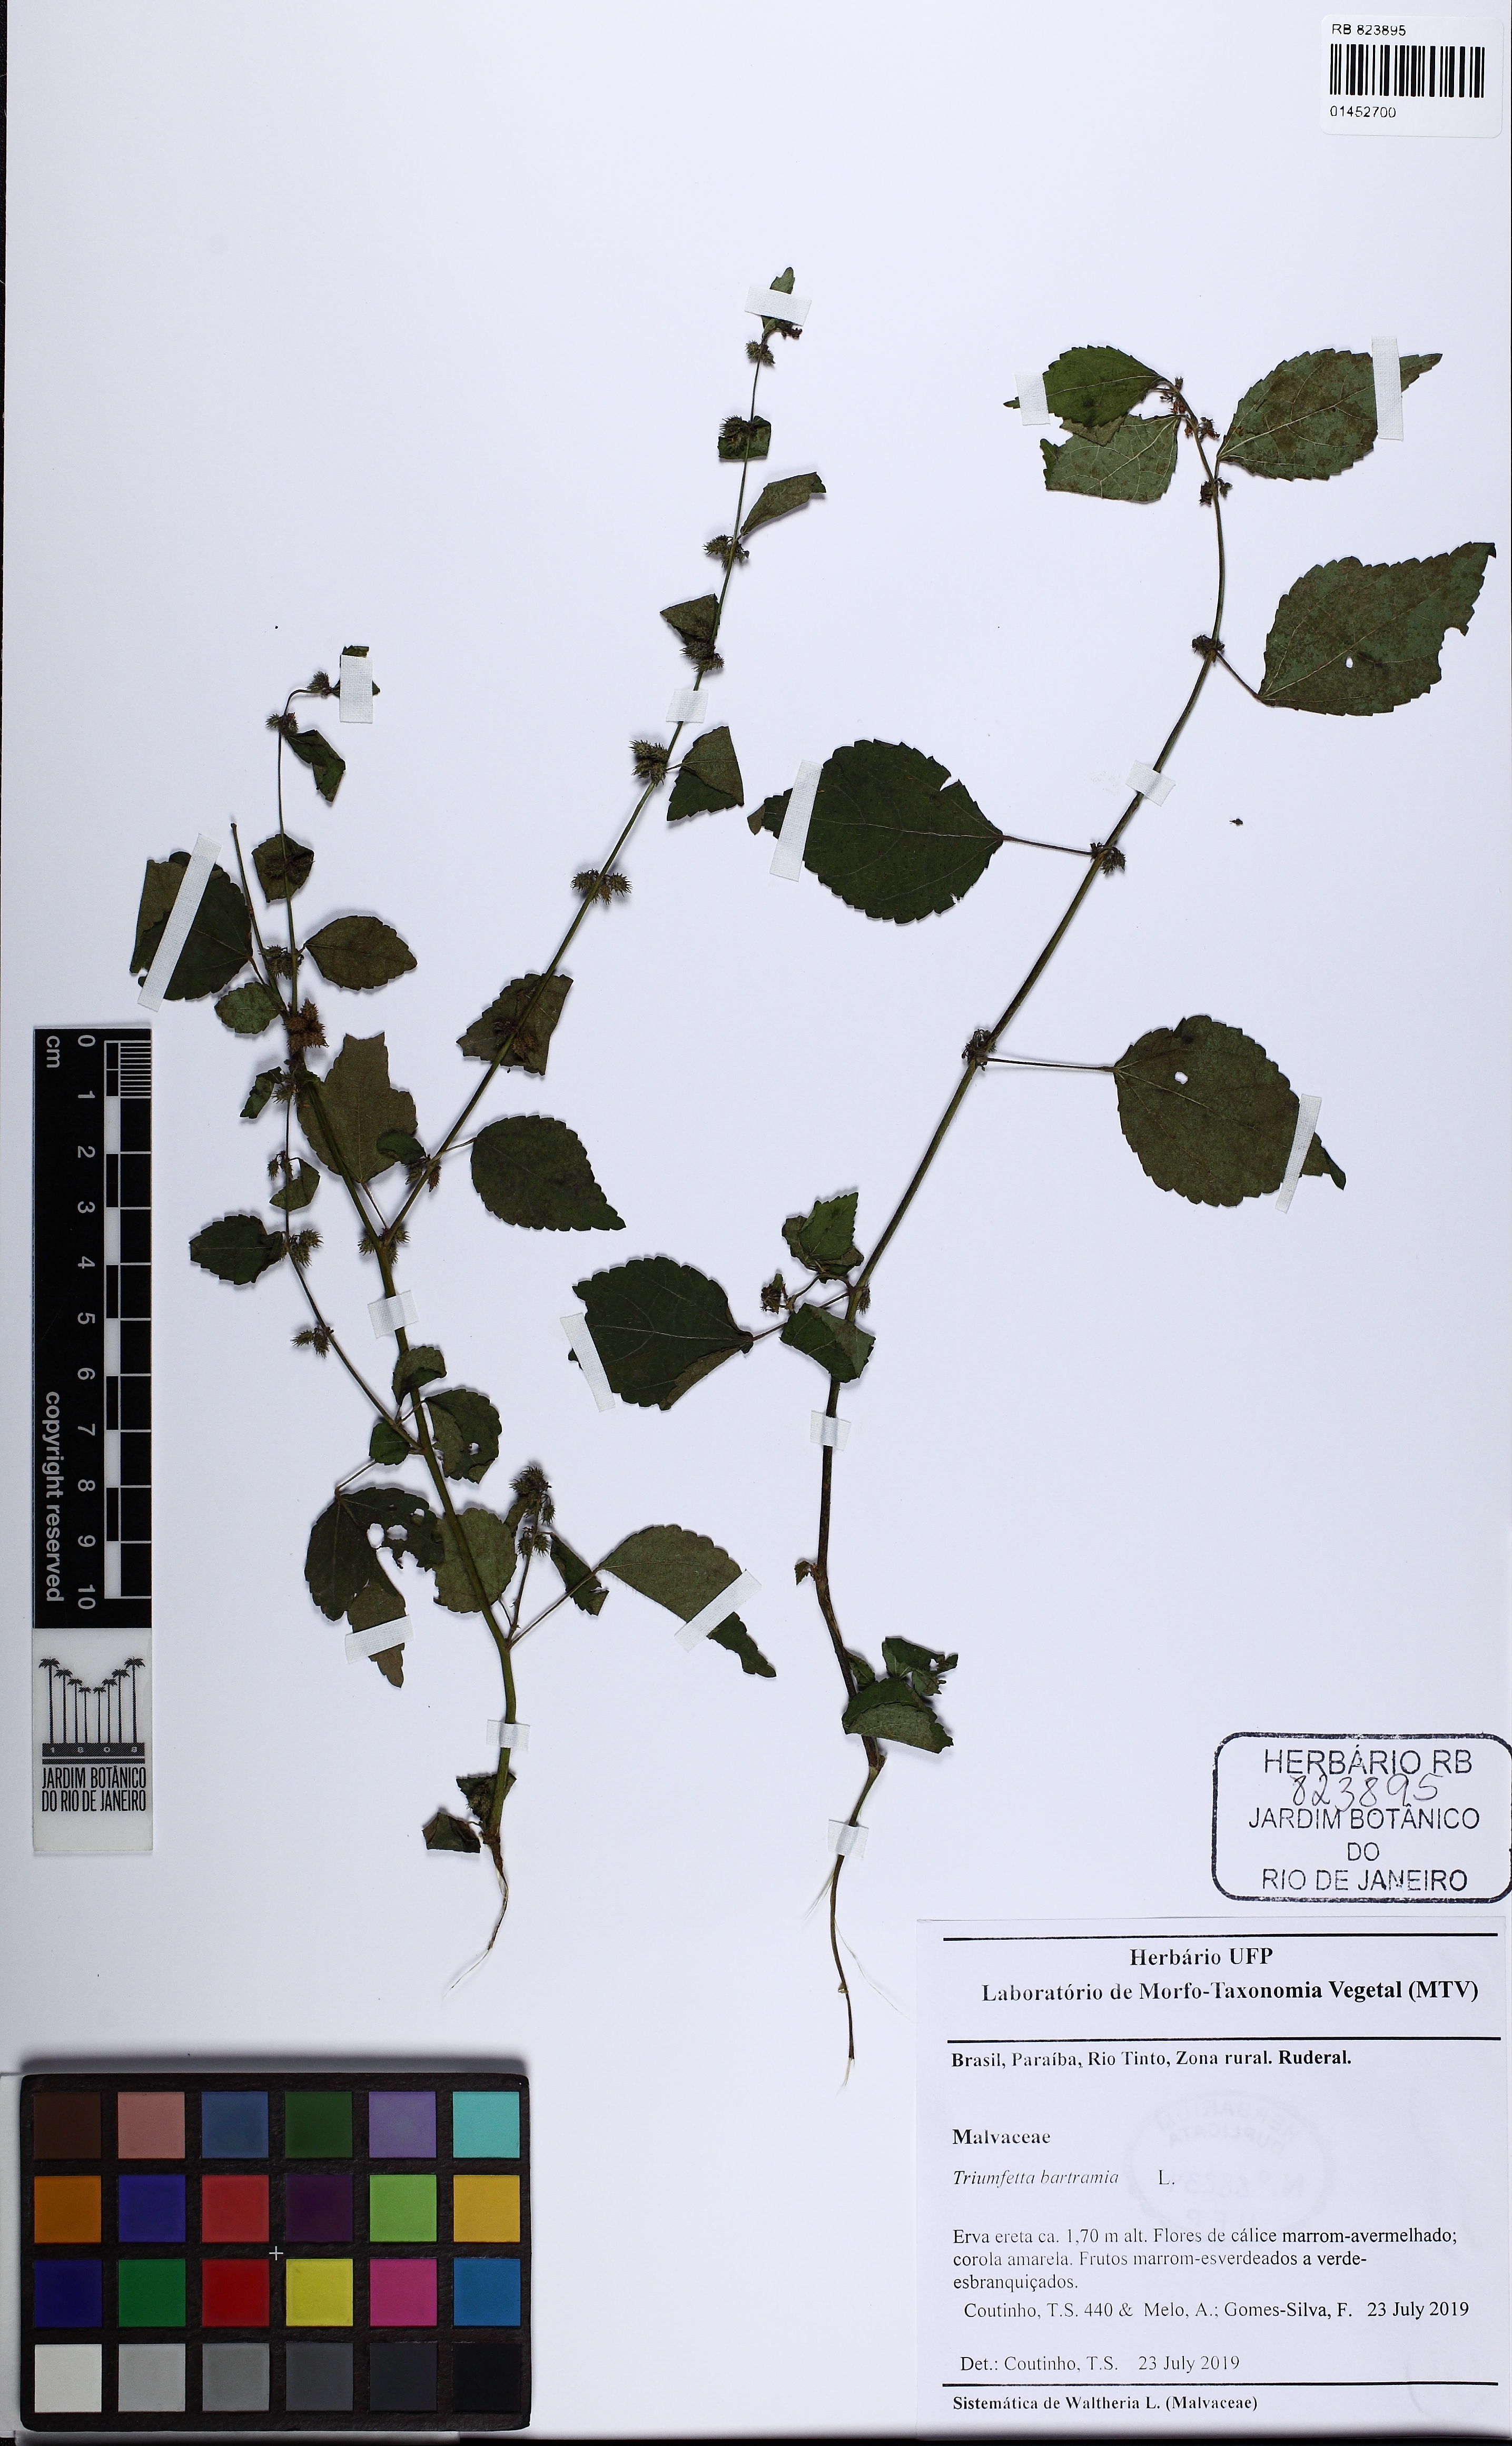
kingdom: Plantae
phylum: Tracheophyta
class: Magnoliopsida
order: Malvales
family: Malvaceae
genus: Triumfetta
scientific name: Triumfetta rhomboidea
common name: Diamond burbark
